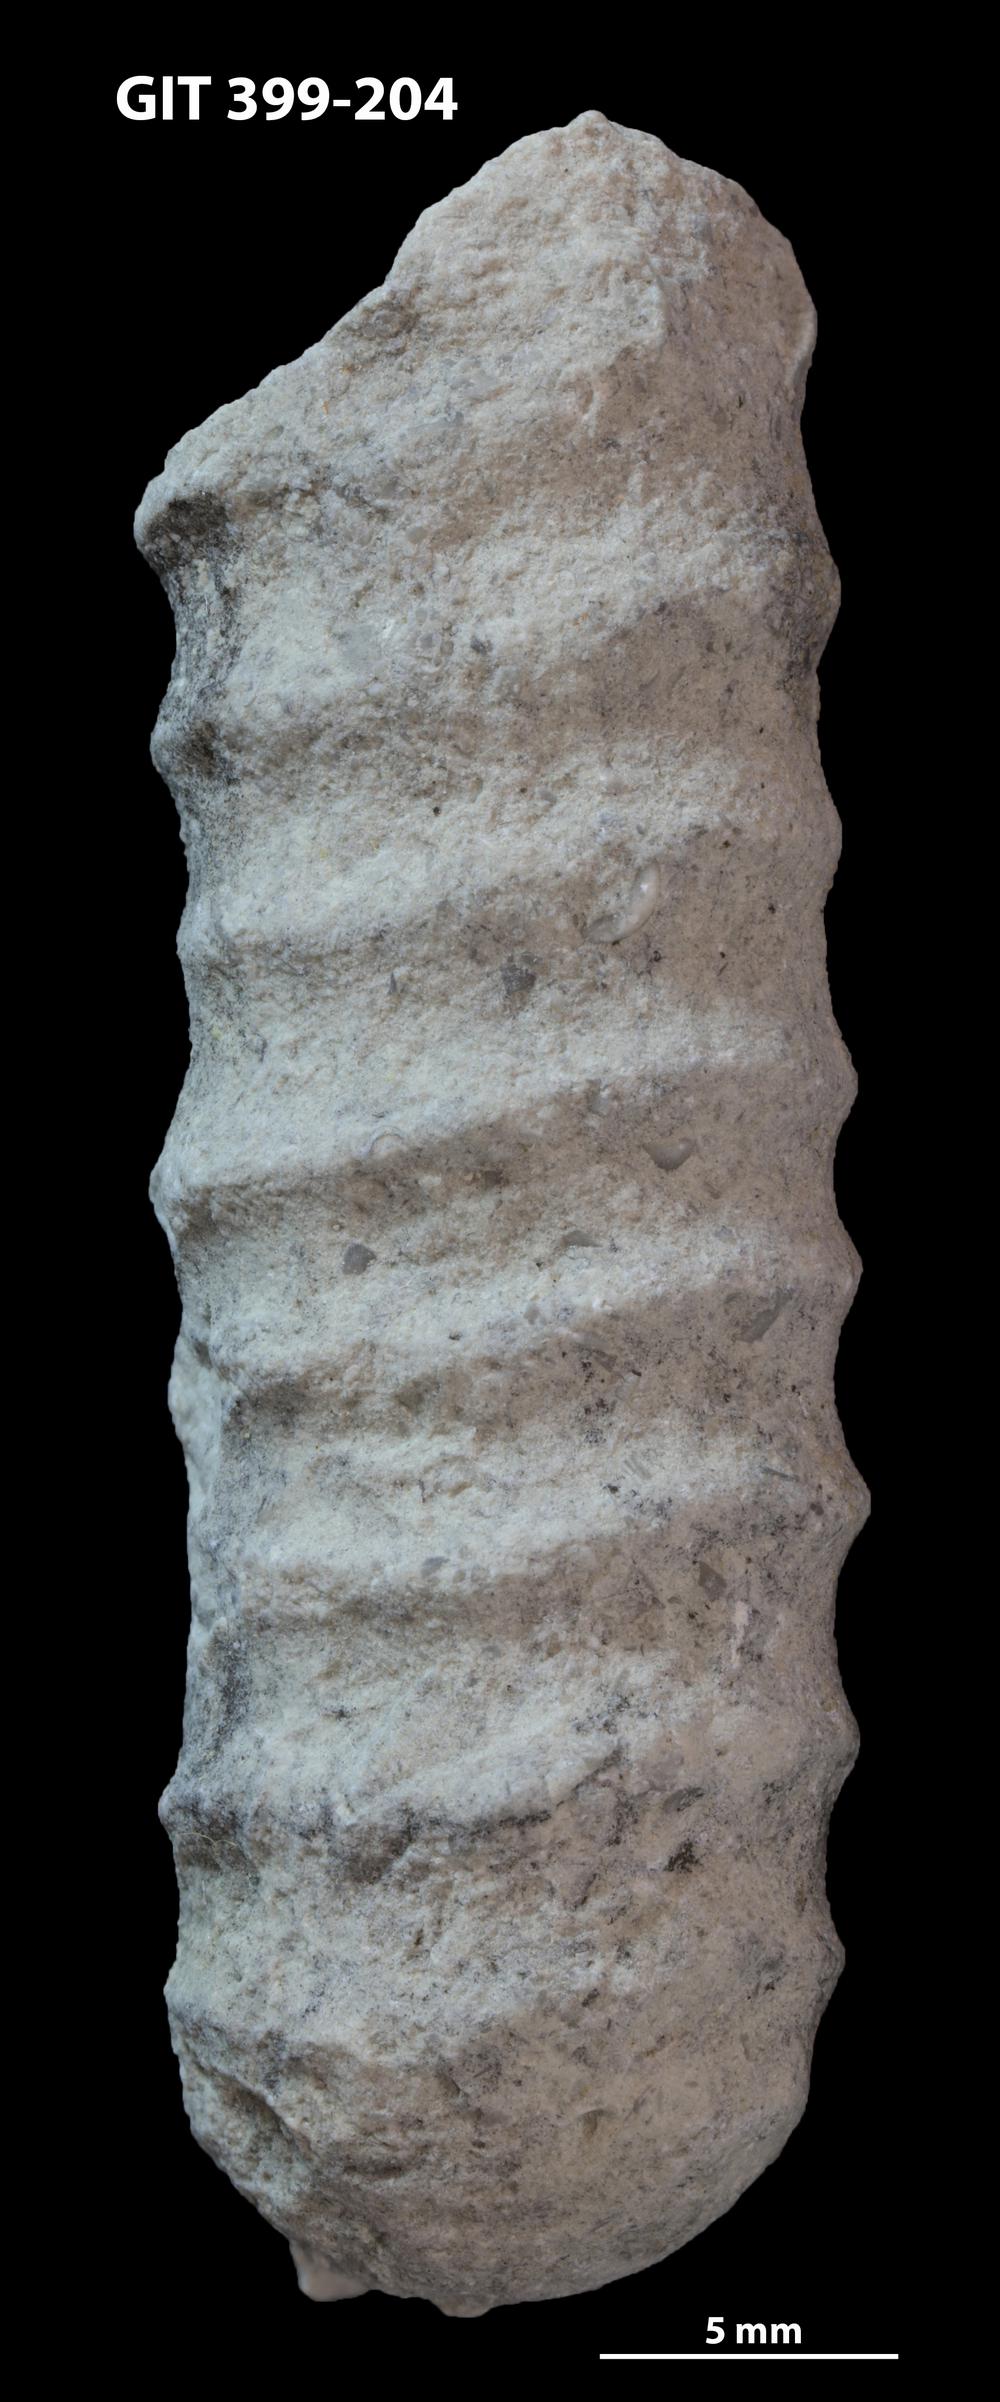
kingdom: Animalia
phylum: Mollusca
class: Cephalopoda
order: Orthocerida
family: Orthoceratidae
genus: Striatocycloceras
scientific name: Striatocycloceras
